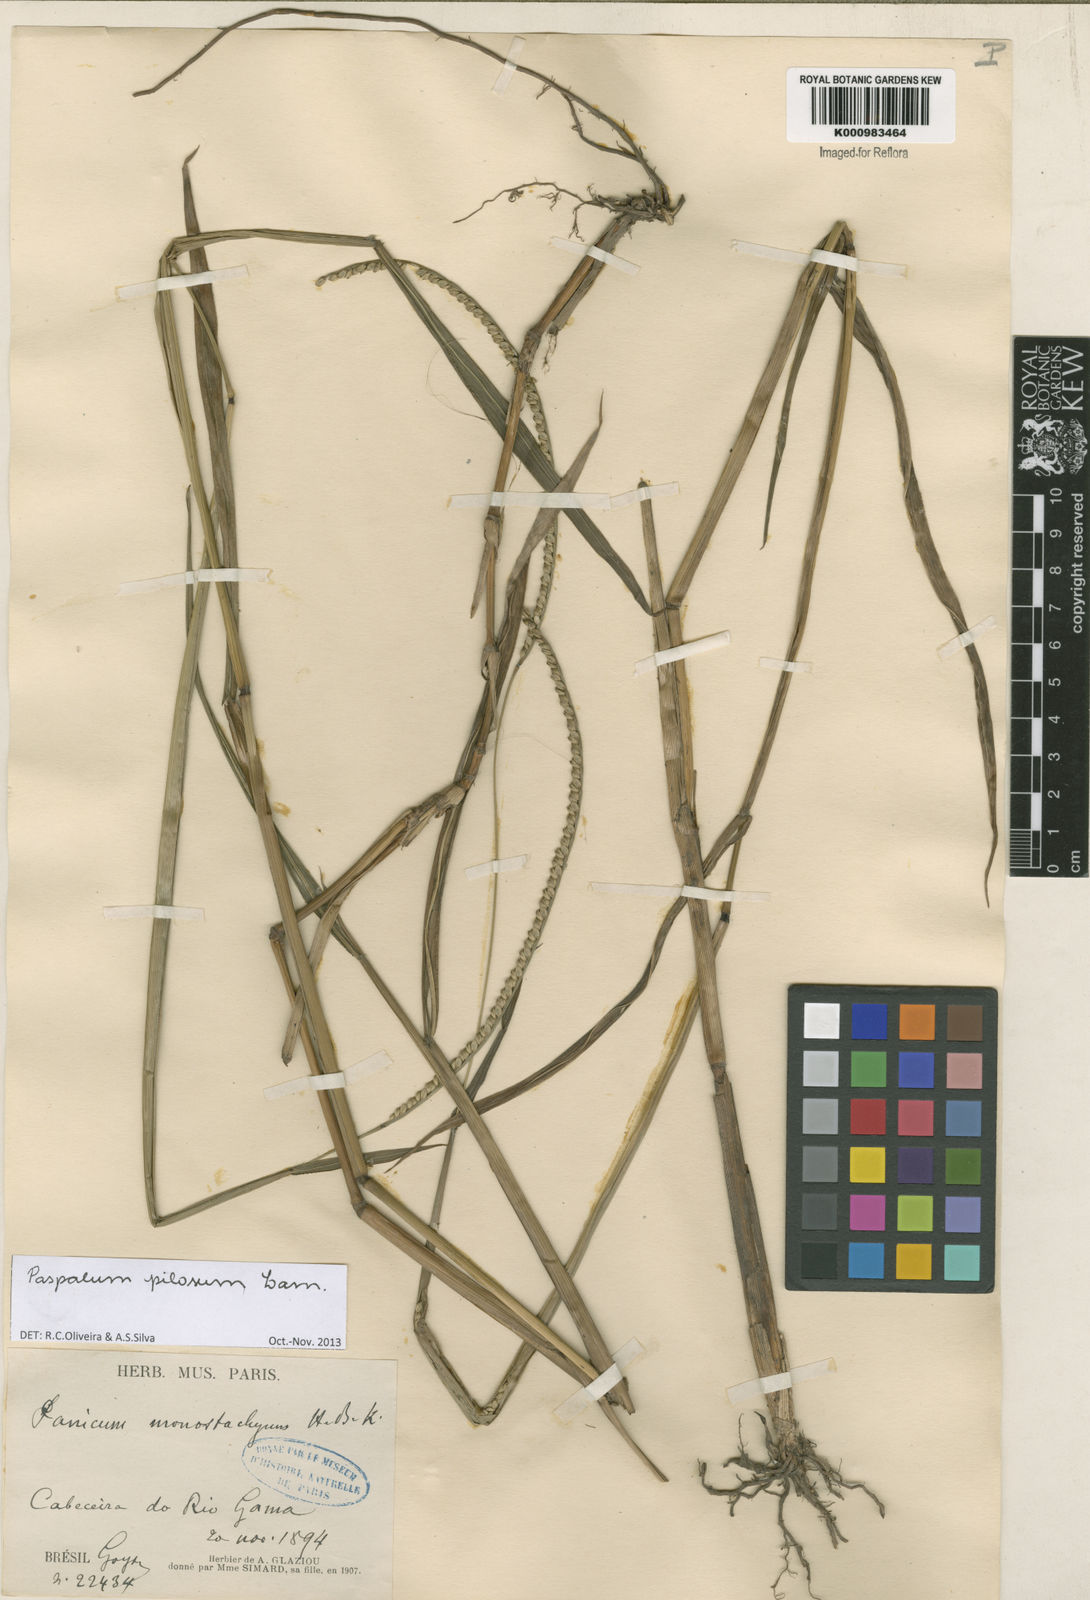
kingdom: Plantae
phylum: Tracheophyta
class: Liliopsida
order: Poales
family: Poaceae
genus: Paspalum
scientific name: Paspalum pilosum
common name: Crowngrass
